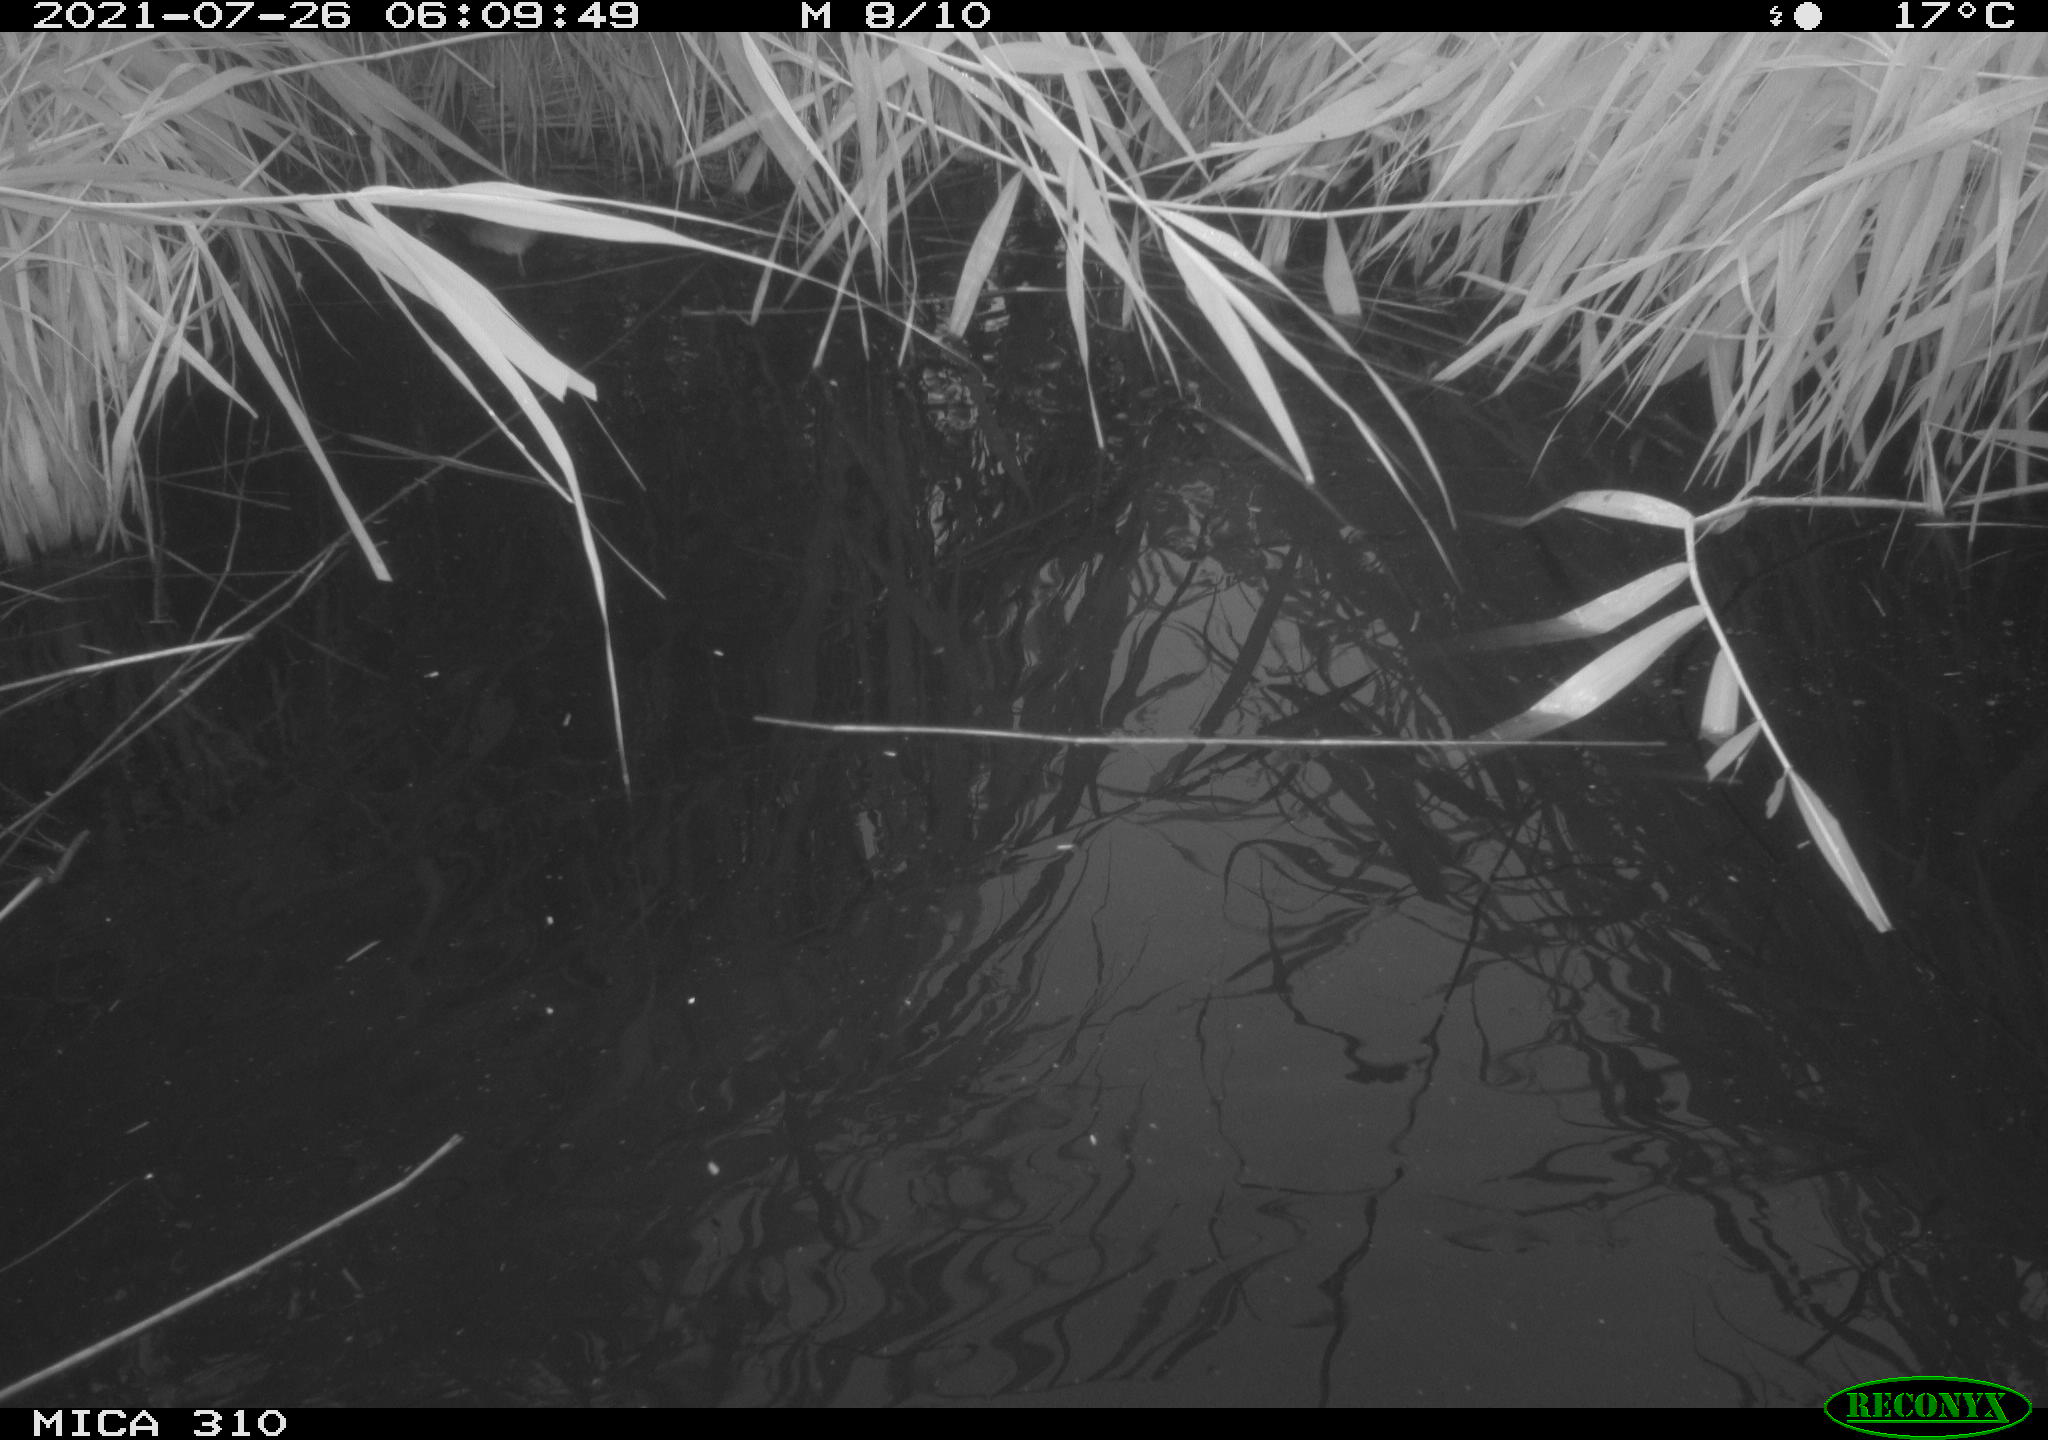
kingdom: Animalia
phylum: Chordata
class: Aves
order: Anseriformes
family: Anatidae
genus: Anas
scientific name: Anas platyrhynchos
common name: Mallard
